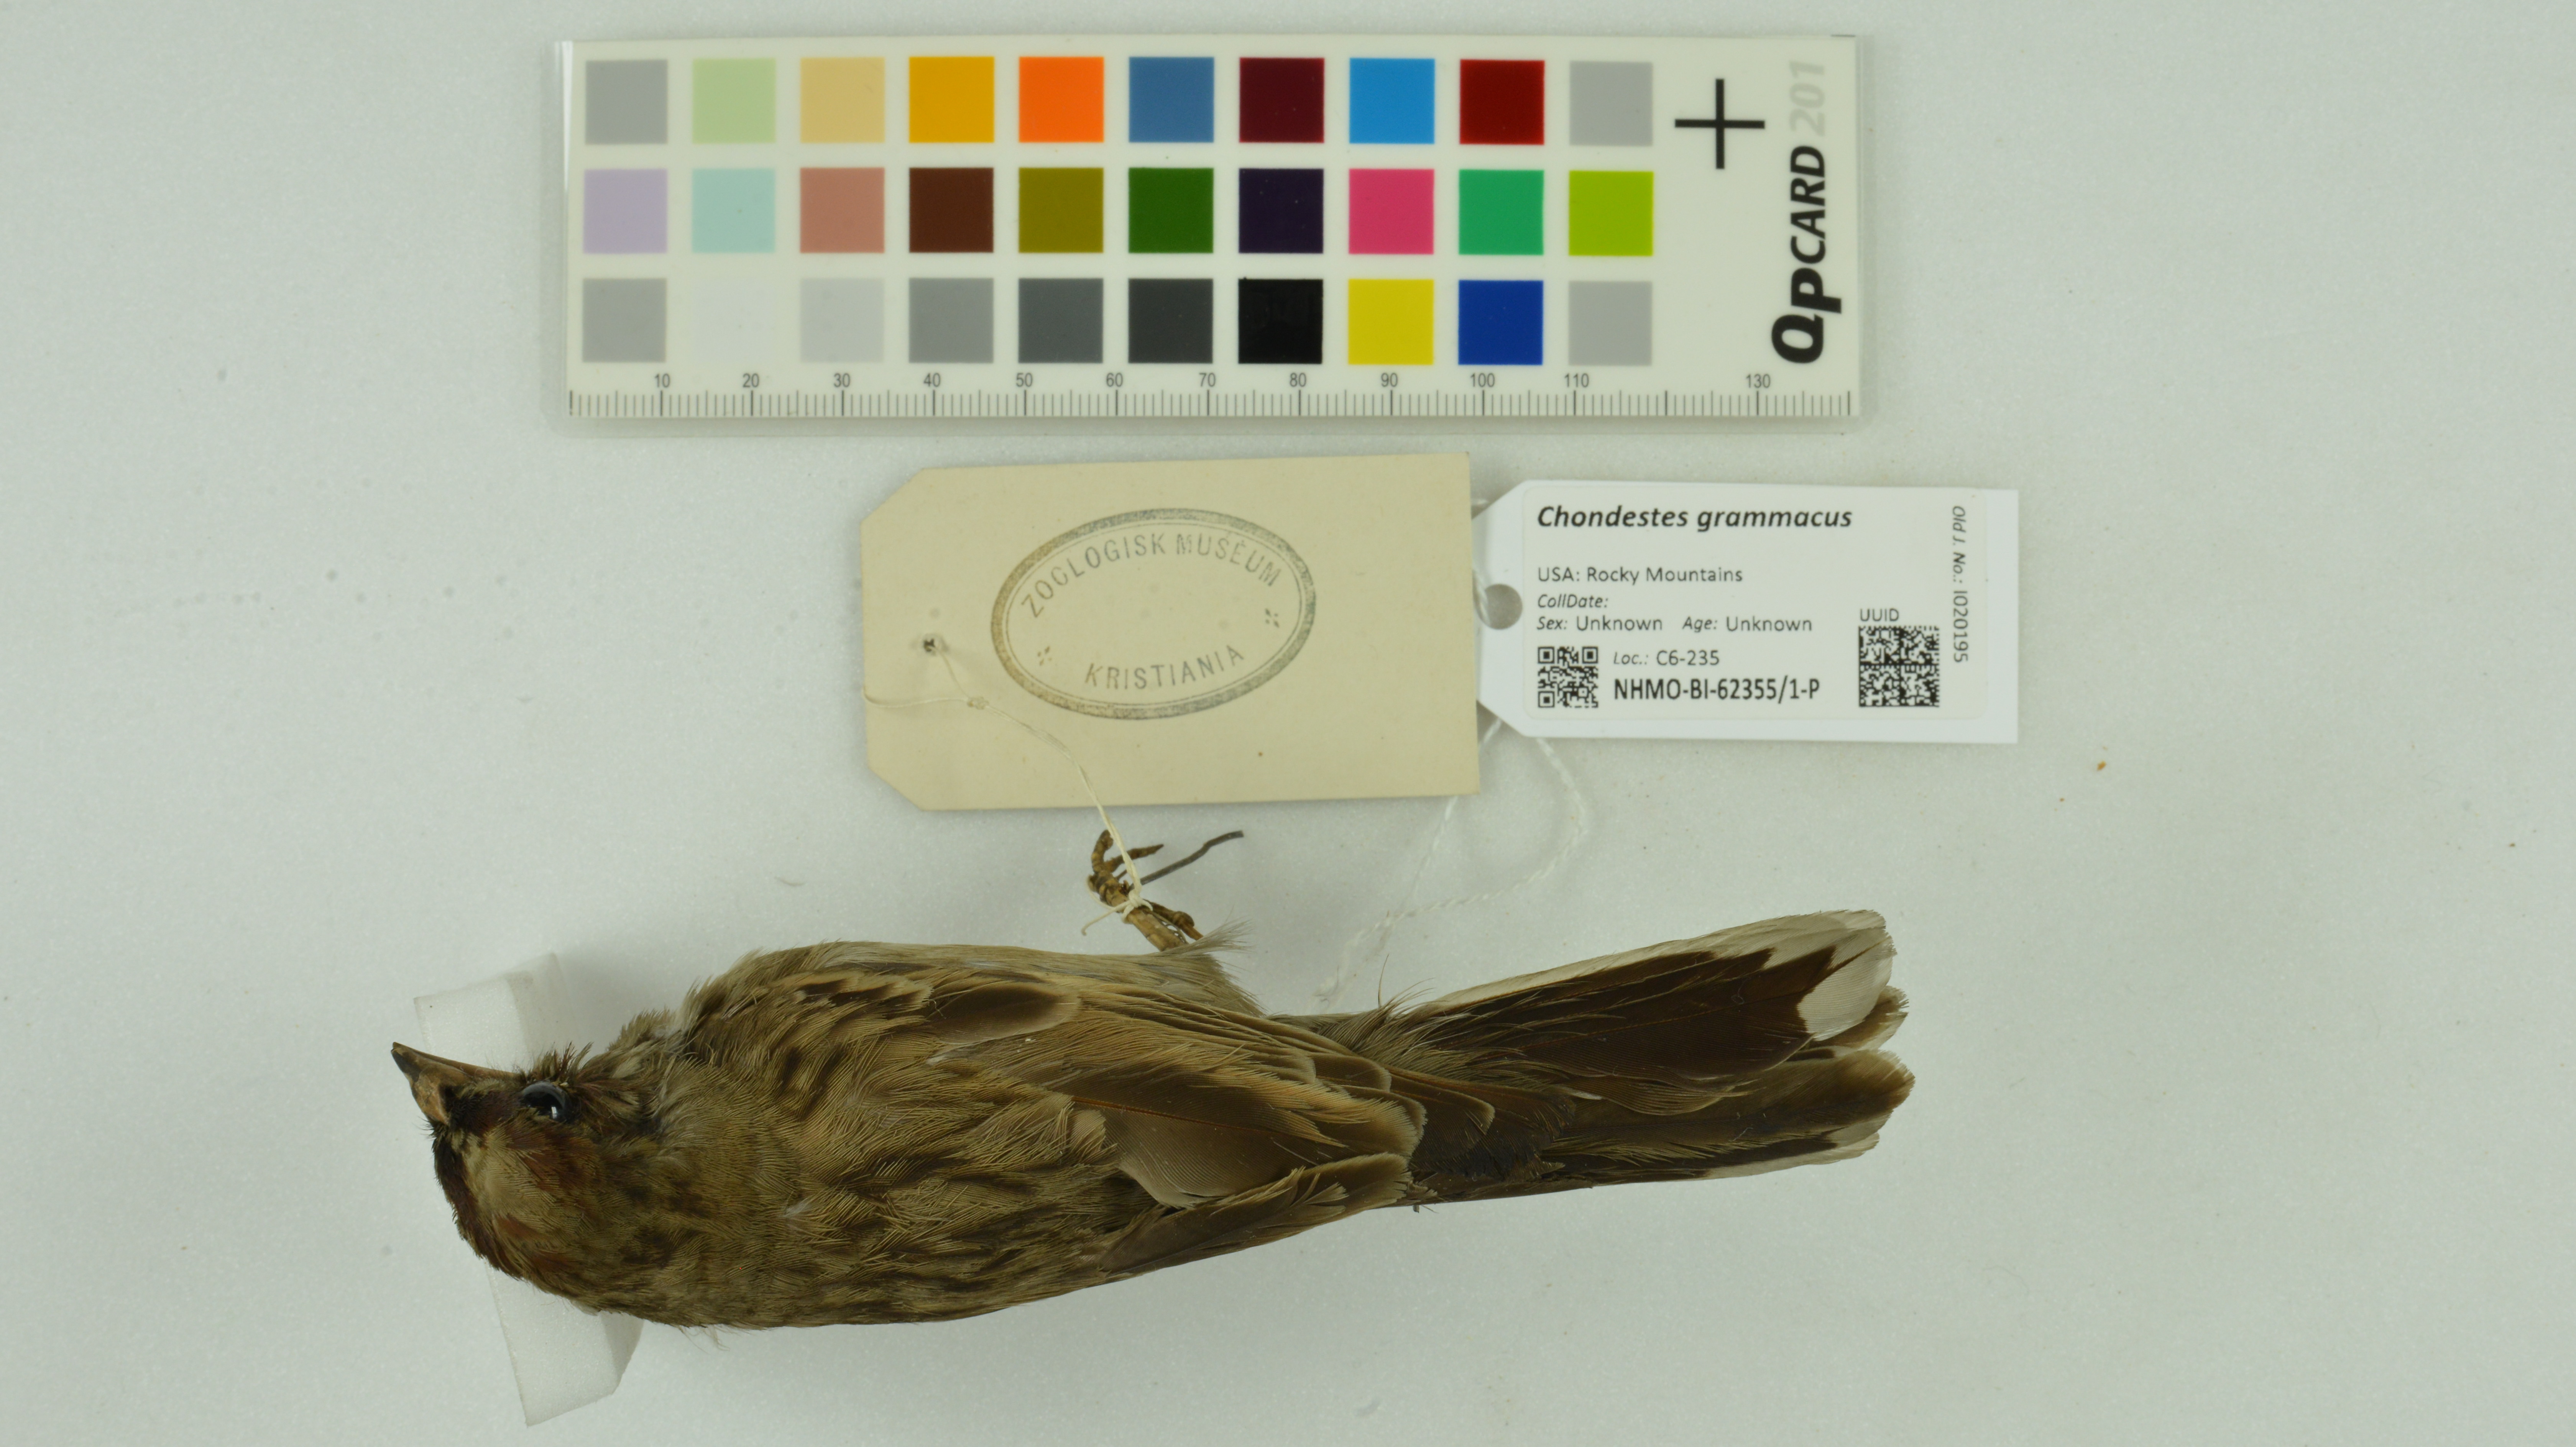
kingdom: Animalia
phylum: Chordata
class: Aves
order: Passeriformes
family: Passerellidae
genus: Chondestes
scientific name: Chondestes grammacus
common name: Lark sparrow
